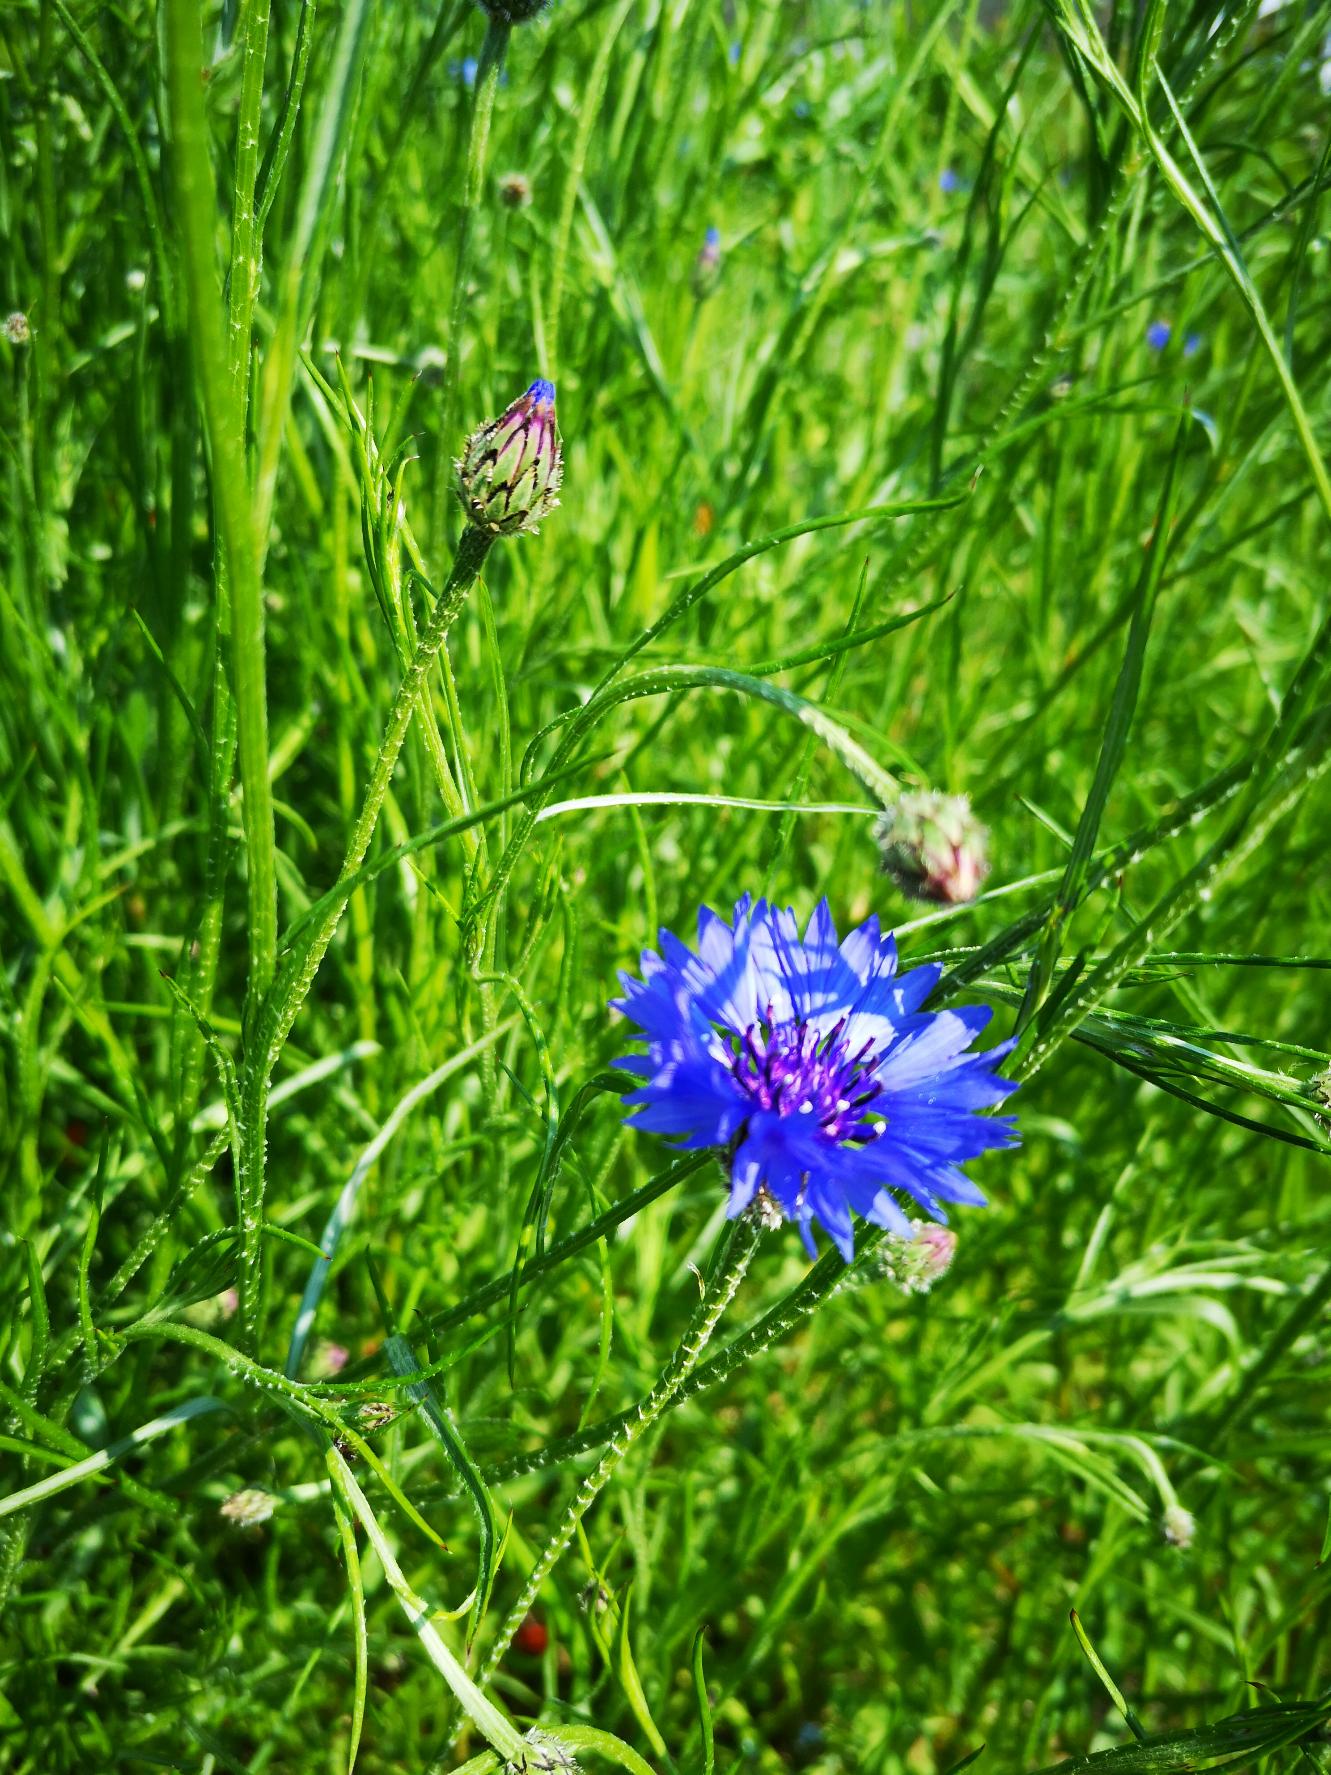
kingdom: Plantae
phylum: Tracheophyta
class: Magnoliopsida
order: Asterales
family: Asteraceae
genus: Centaurea
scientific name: Centaurea cyanus
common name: Kornblomst
